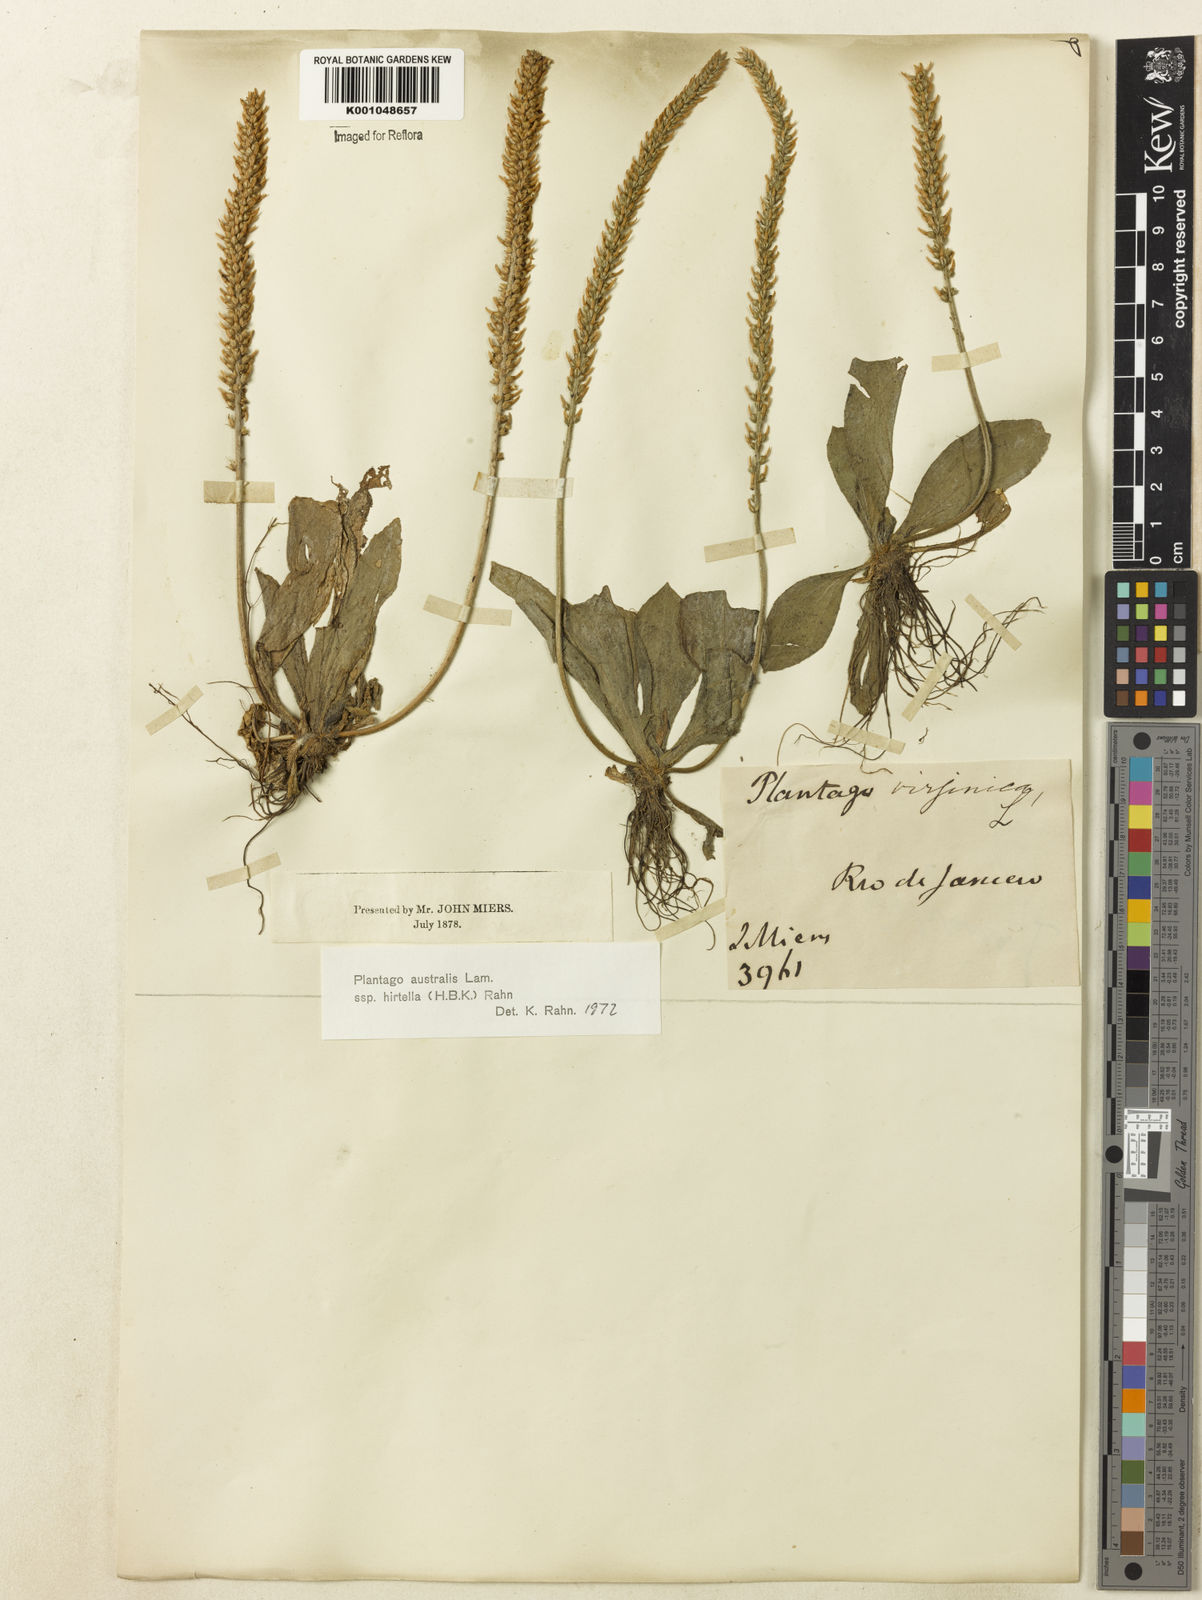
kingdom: Plantae
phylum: Tracheophyta
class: Magnoliopsida
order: Lamiales
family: Plantaginaceae
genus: Plantago
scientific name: Plantago australis
